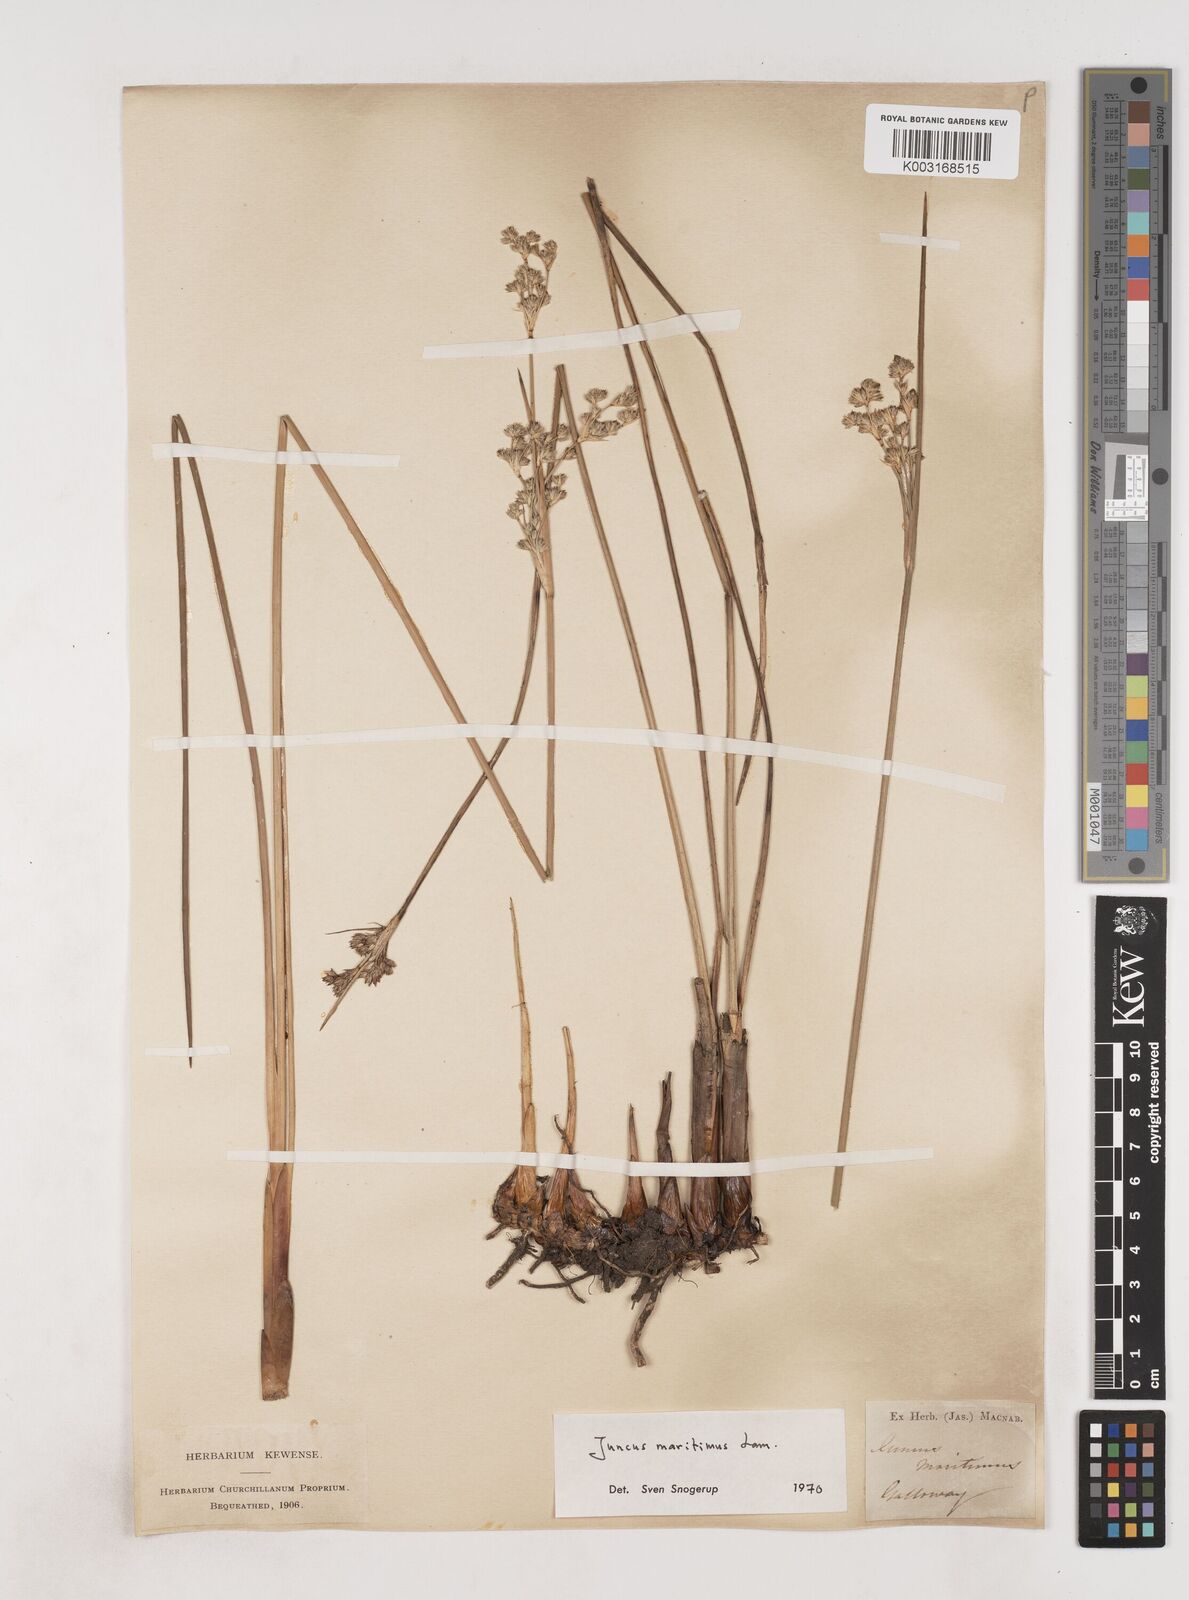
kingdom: Plantae
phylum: Tracheophyta
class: Liliopsida
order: Poales
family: Juncaceae
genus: Juncus
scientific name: Juncus maritimus
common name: Sea rush
